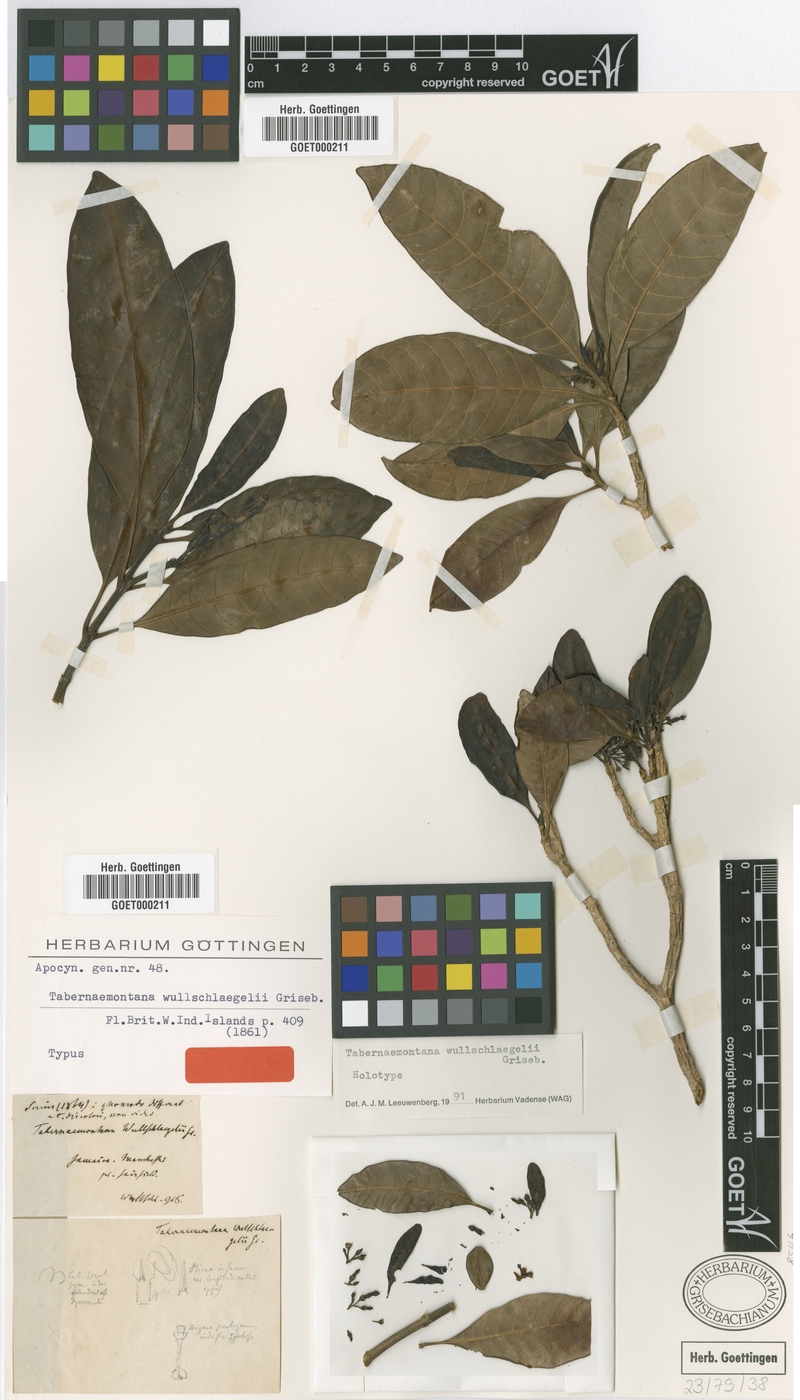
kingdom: Plantae
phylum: Tracheophyta
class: Magnoliopsida
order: Gentianales
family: Apocynaceae
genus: Tabernaemontana
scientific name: Tabernaemontana wullschlaegelii
